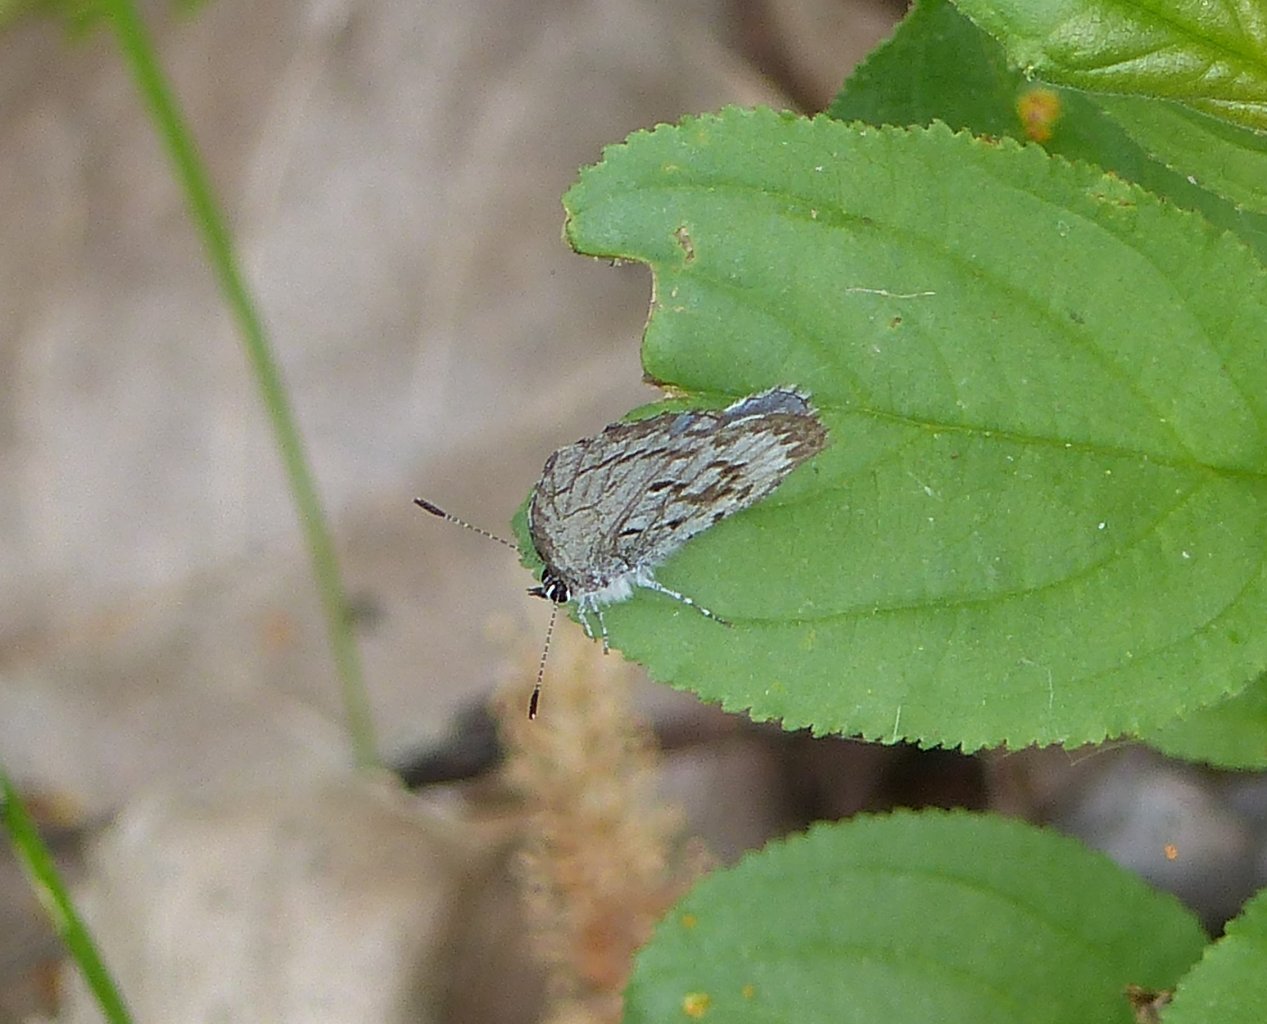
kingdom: Animalia
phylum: Arthropoda
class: Insecta
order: Lepidoptera
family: Lycaenidae
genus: Celastrina
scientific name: Celastrina ladon
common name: Spring Azure
